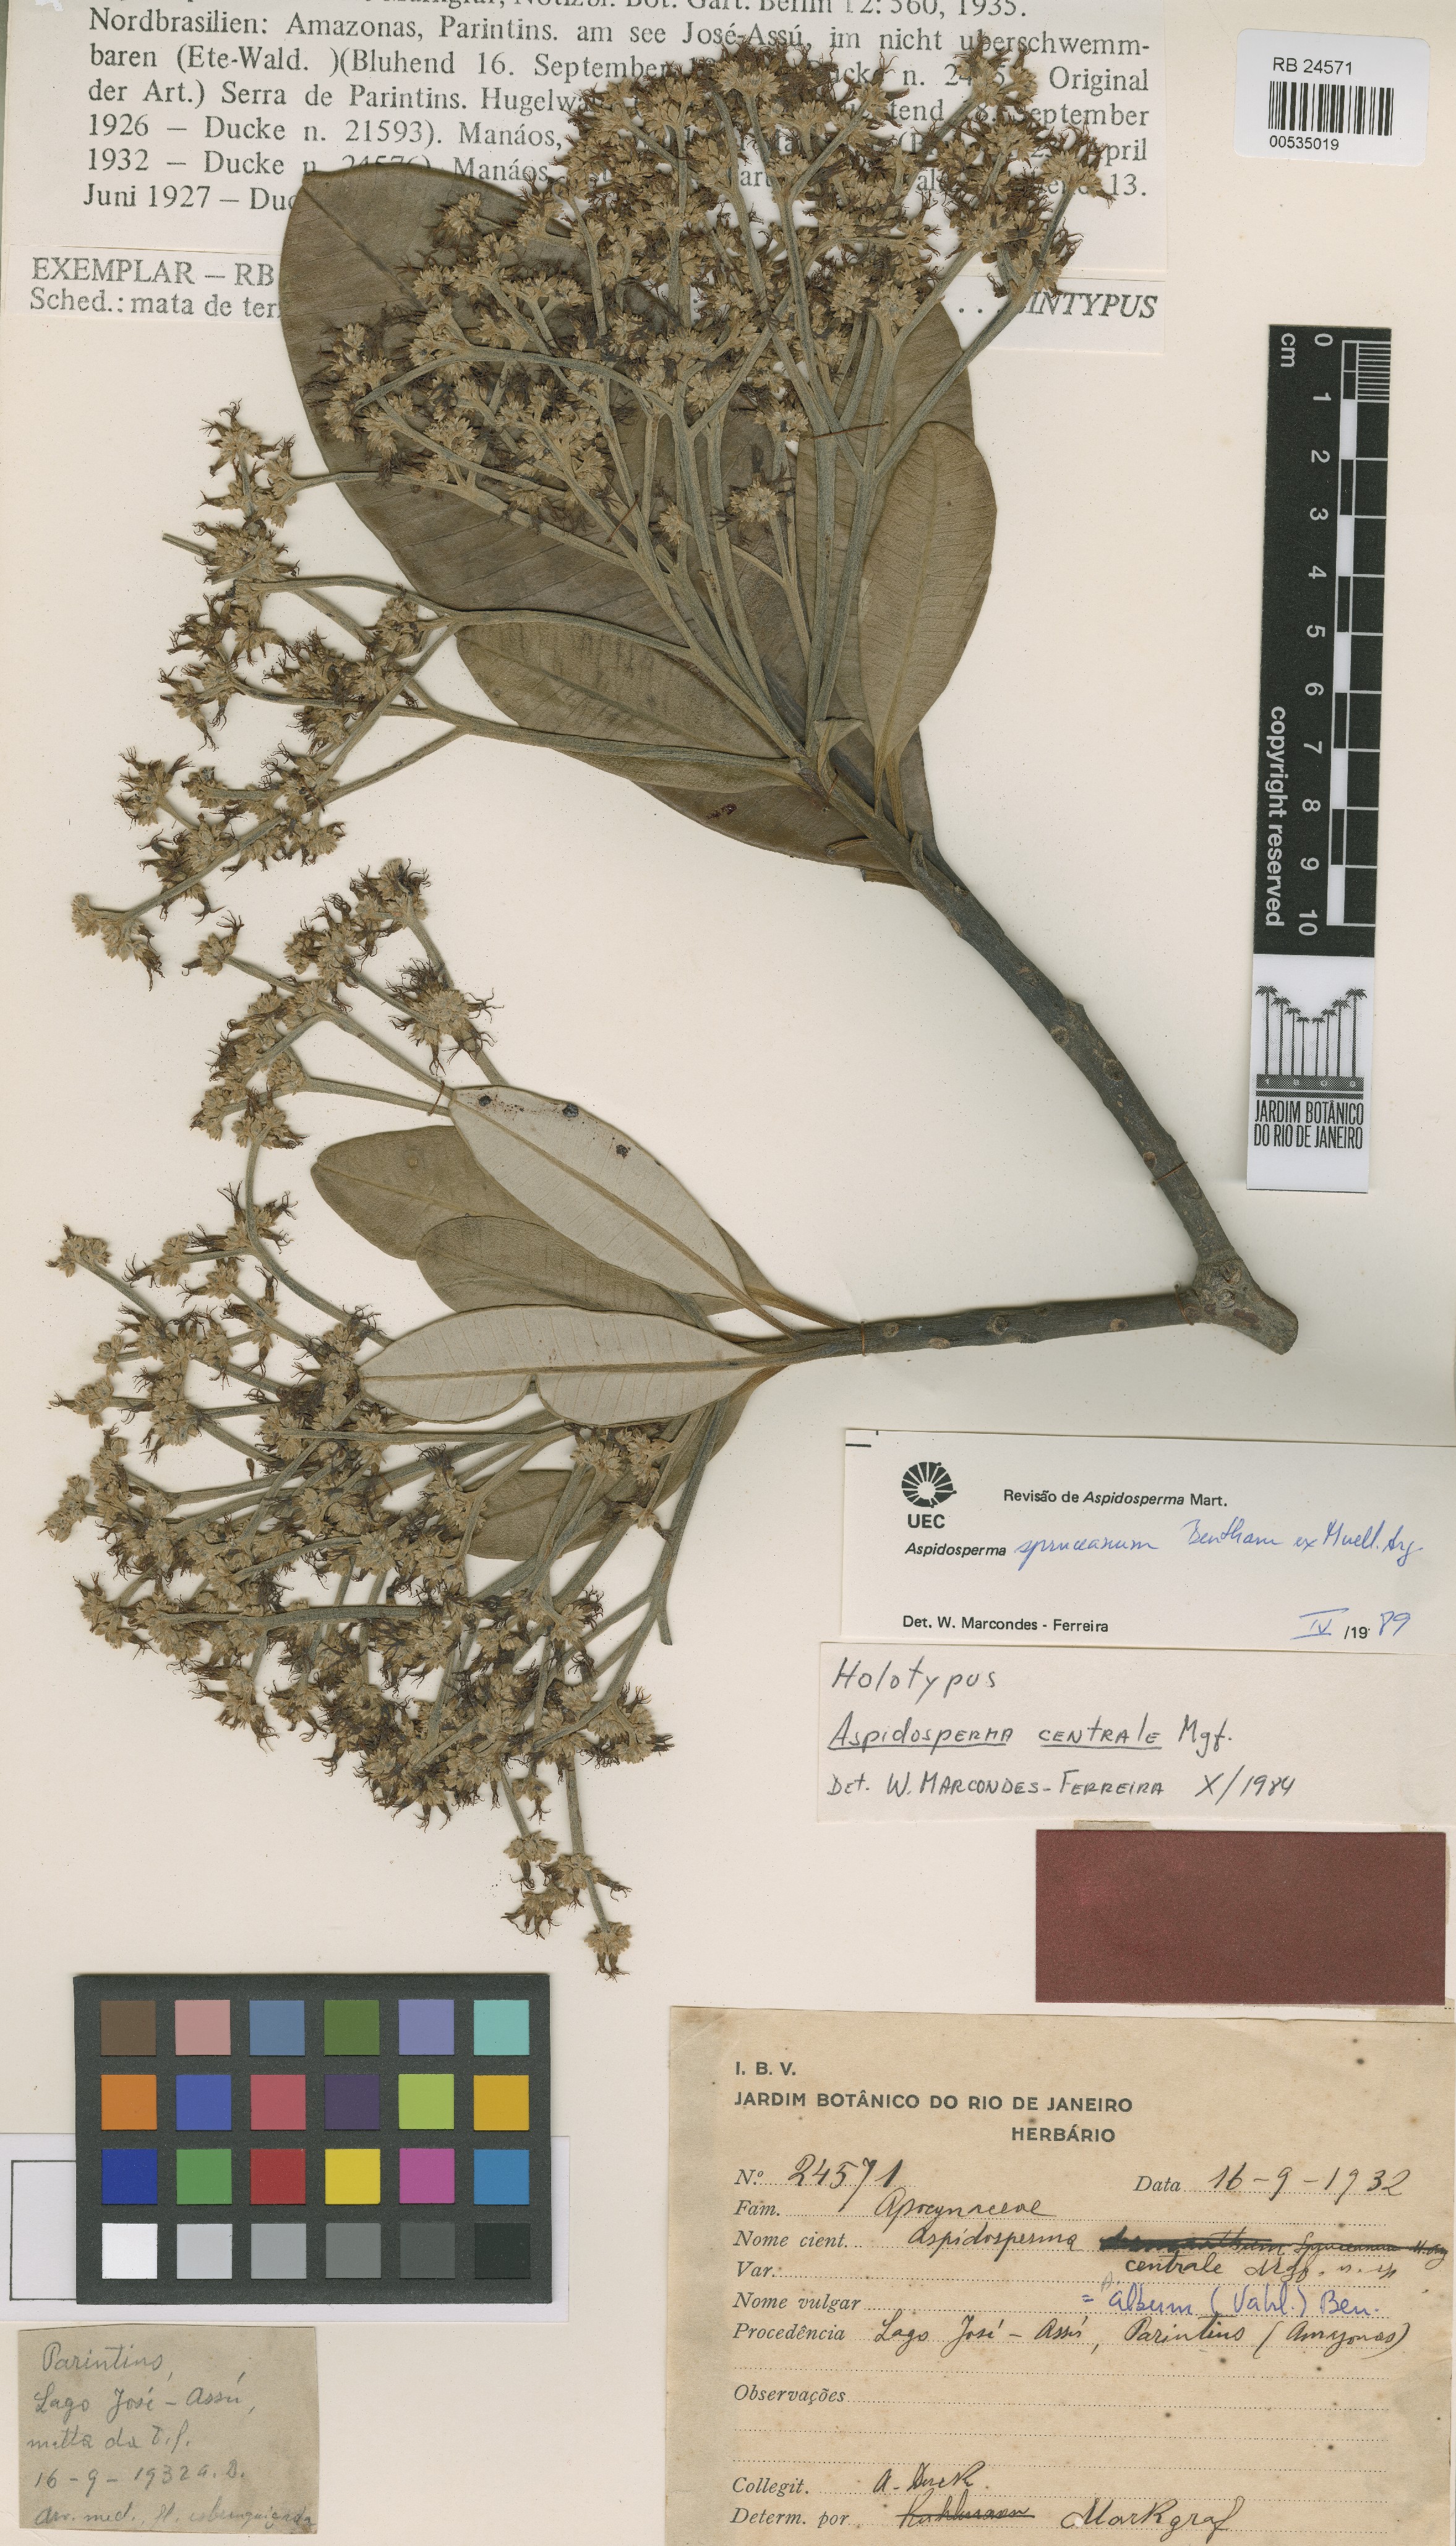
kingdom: Plantae
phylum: Tracheophyta
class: Magnoliopsida
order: Gentianales
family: Apocynaceae
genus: Aspidosperma
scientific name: Aspidosperma album
